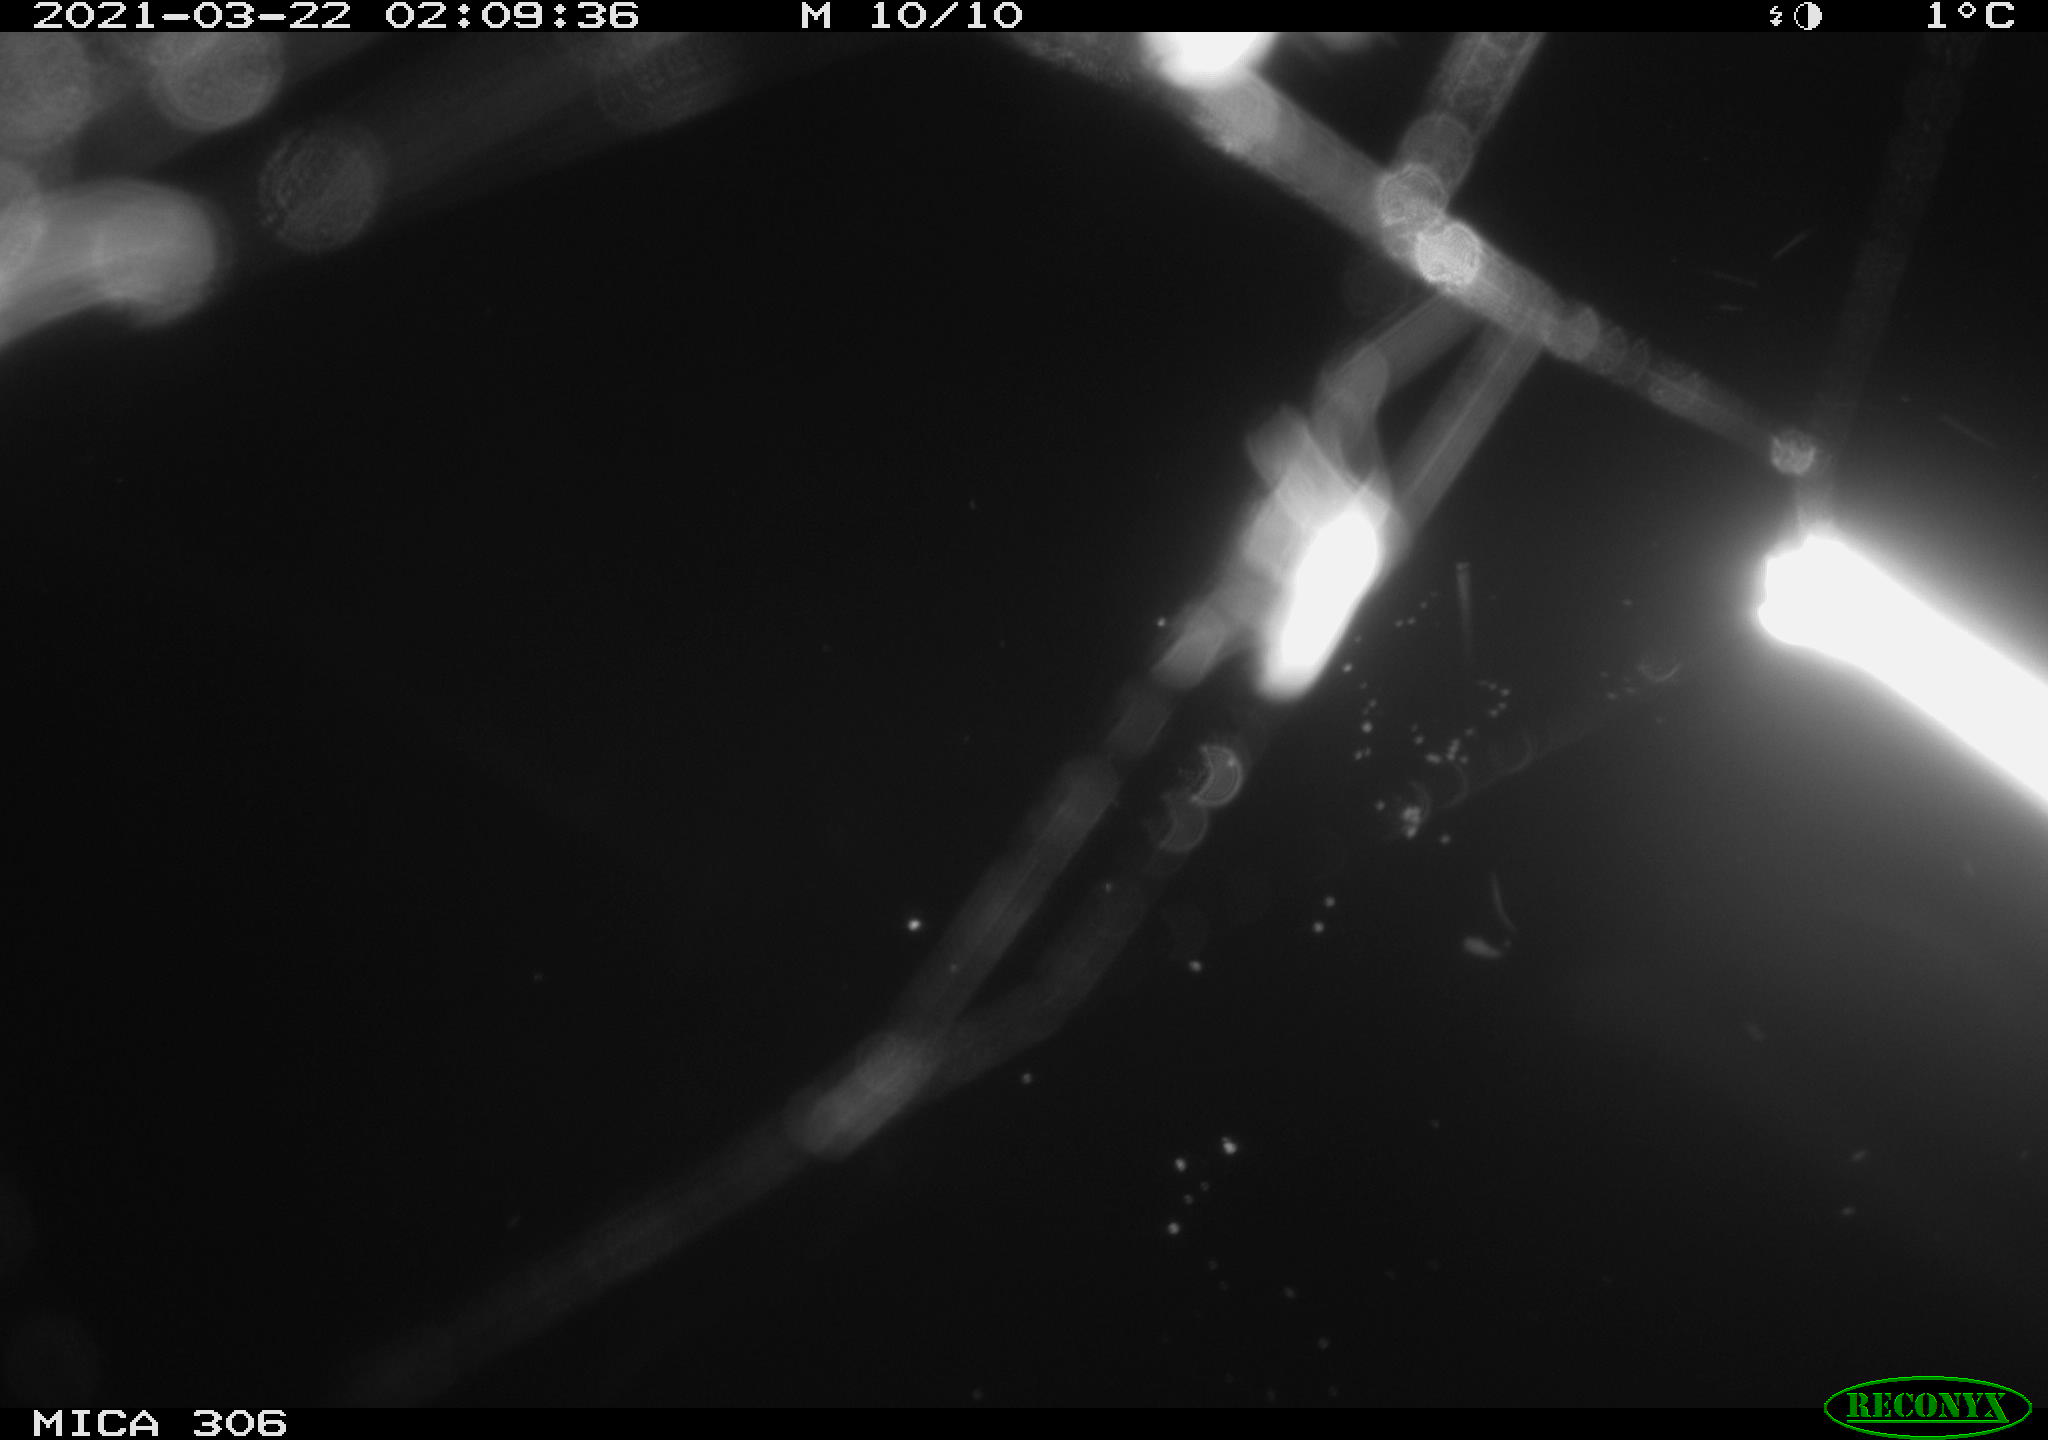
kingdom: Animalia
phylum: Chordata
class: Mammalia
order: Rodentia
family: Cricetidae
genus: Ondatra
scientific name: Ondatra zibethicus
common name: Muskrat
